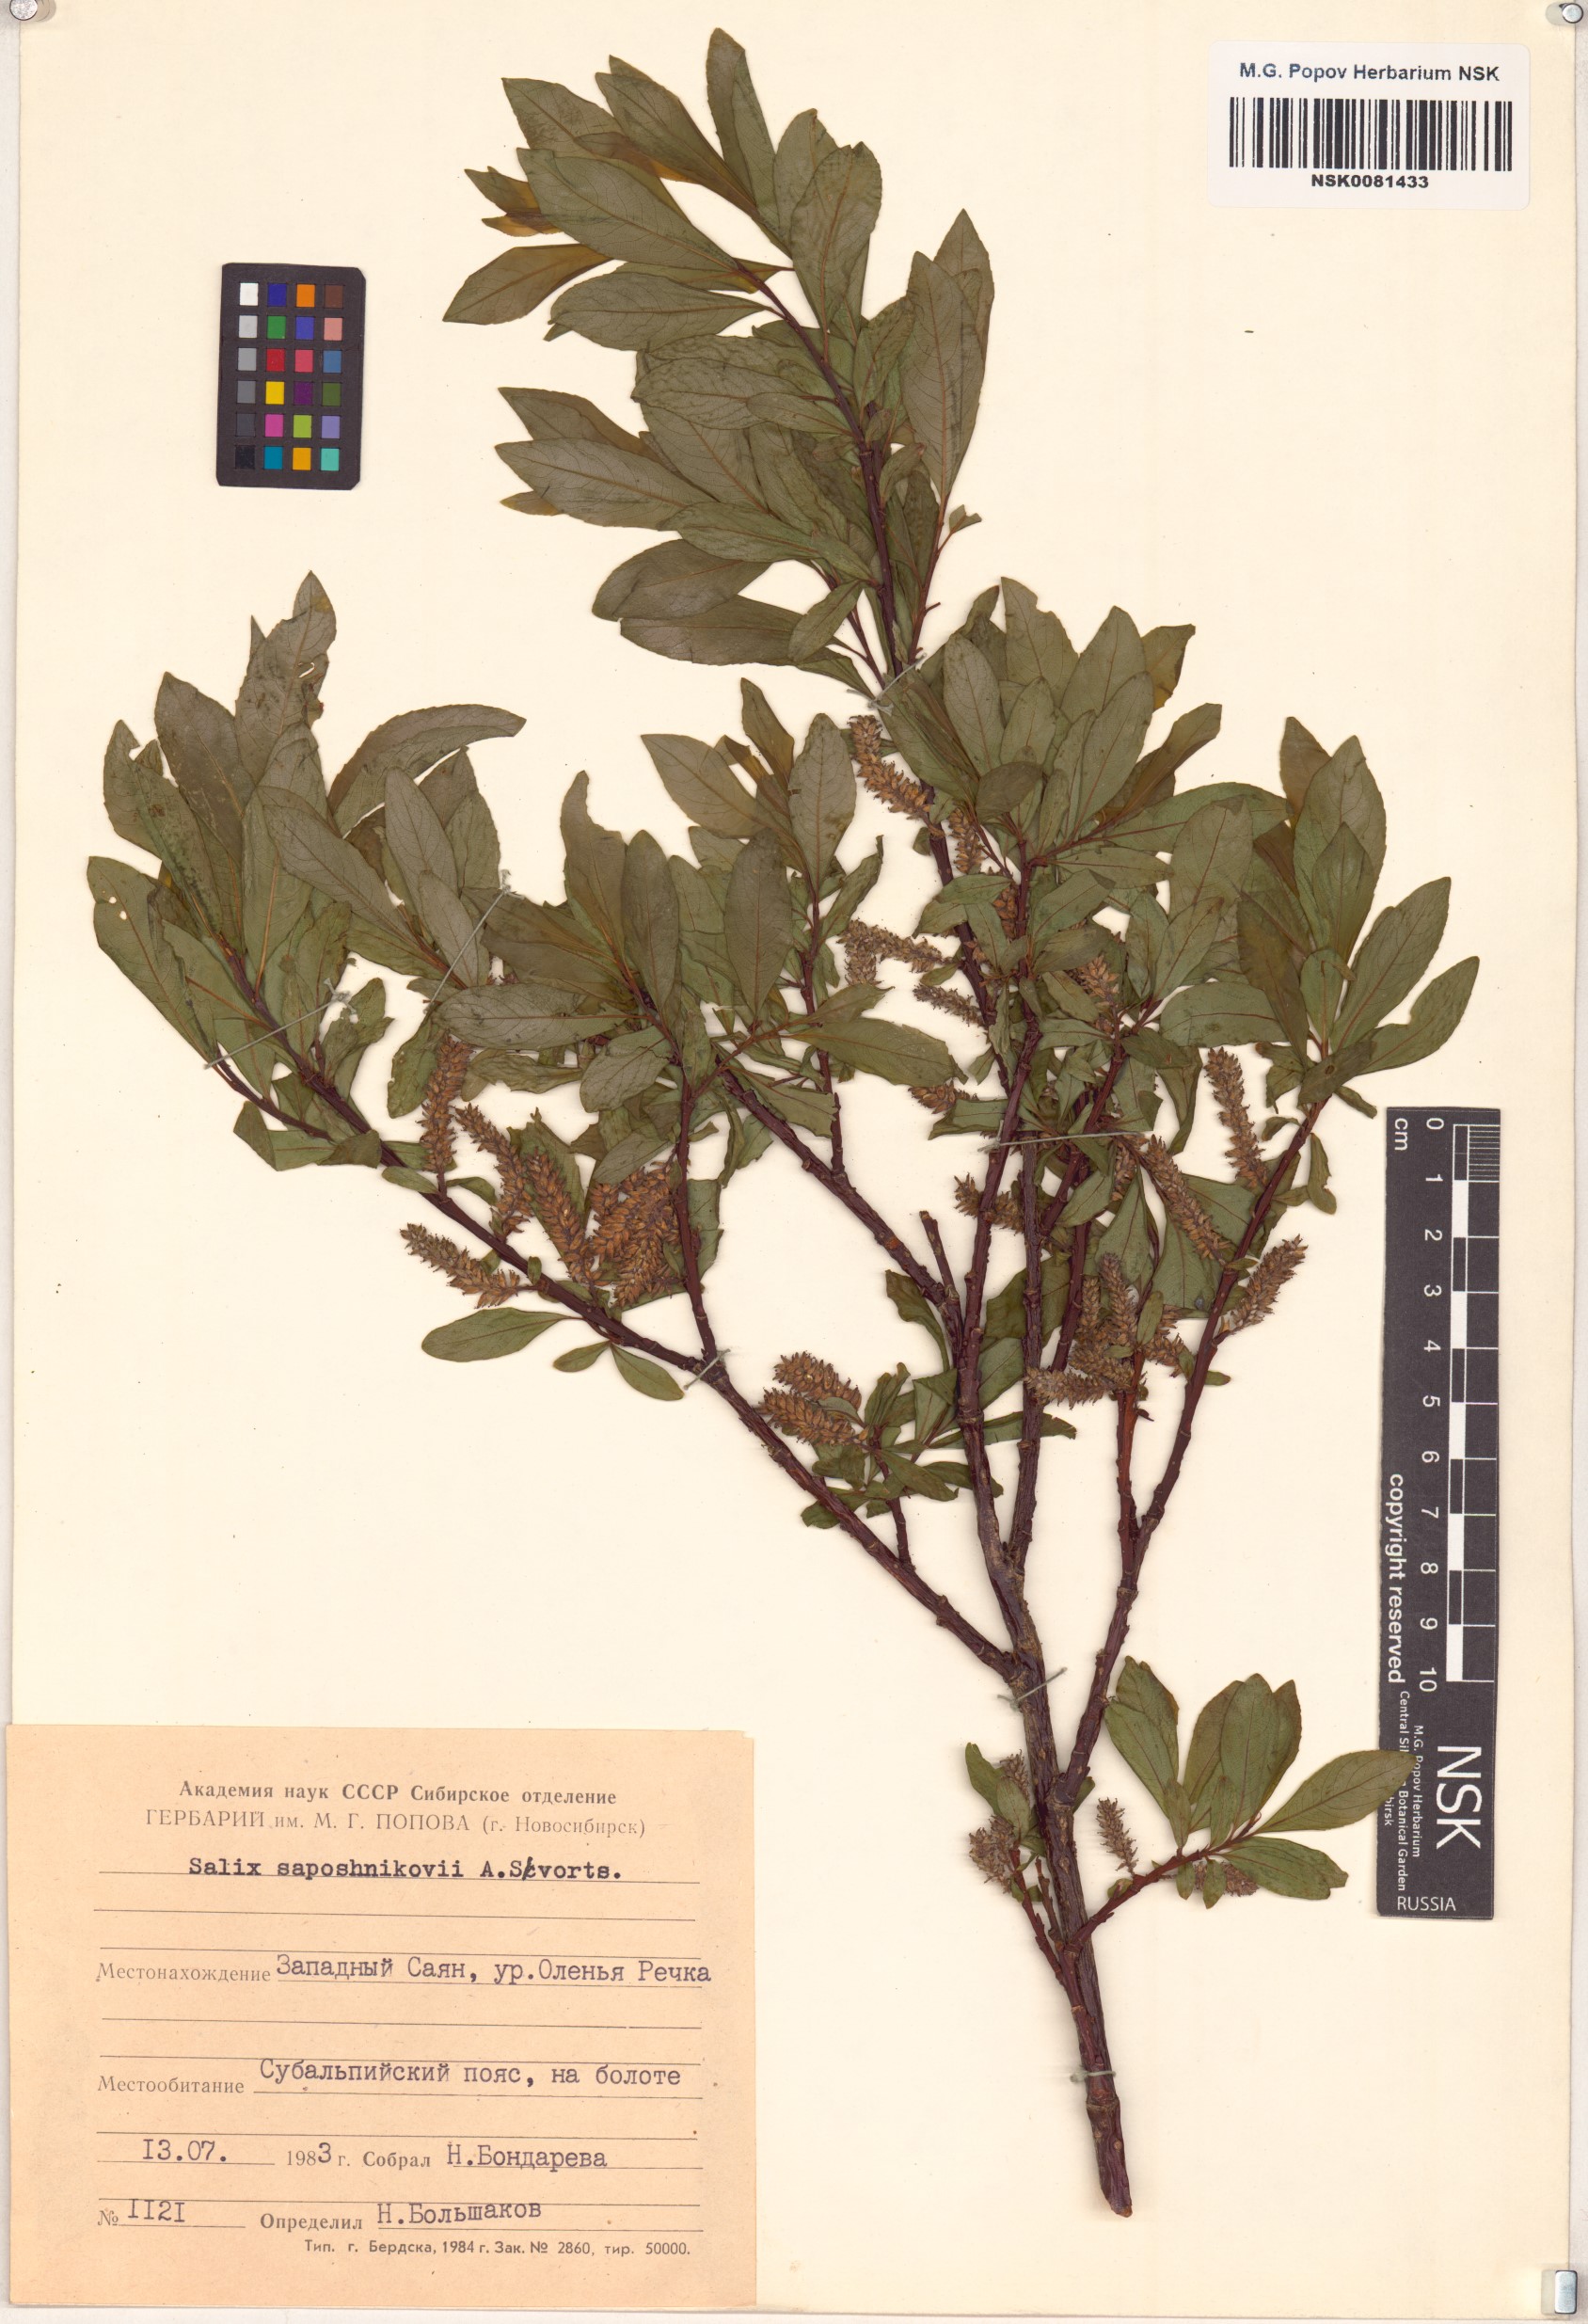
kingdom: Plantae
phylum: Tracheophyta
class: Magnoliopsida
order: Malpighiales
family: Salicaceae
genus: Salix
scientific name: Salix saposhnikovii
